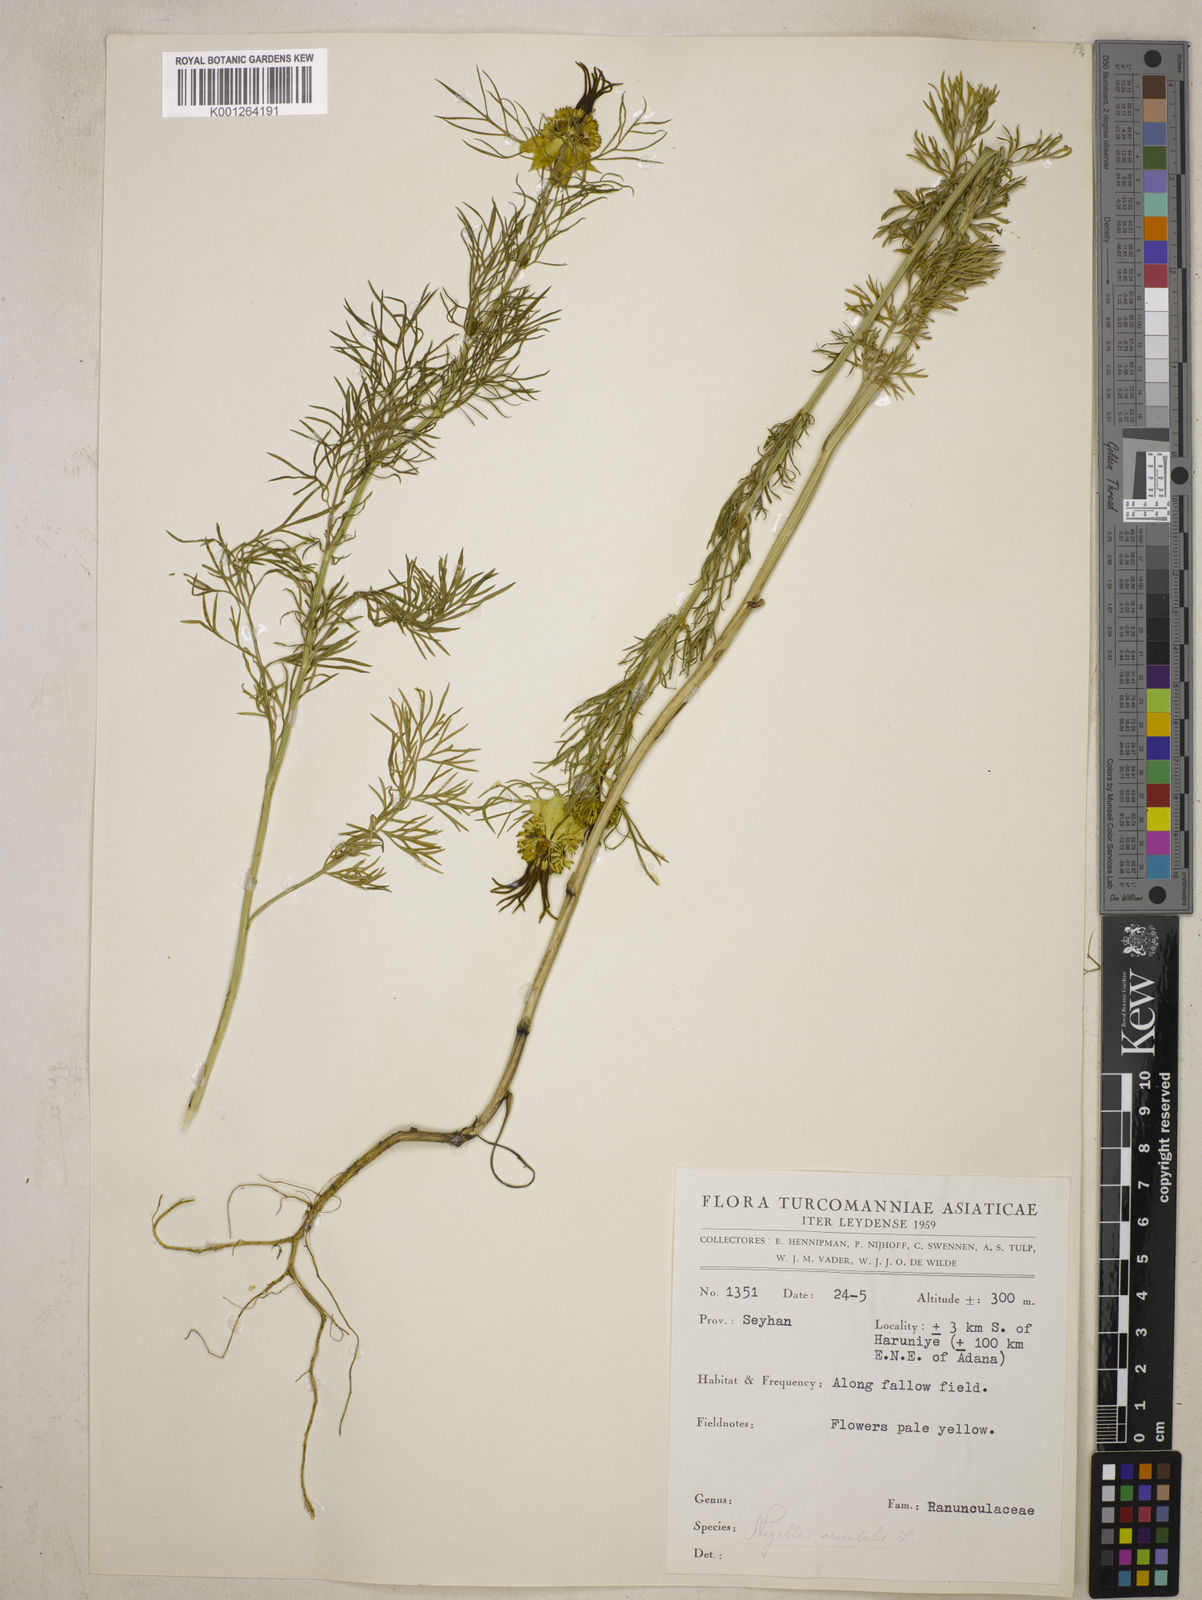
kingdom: Plantae
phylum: Tracheophyta
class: Magnoliopsida
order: Ranunculales
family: Ranunculaceae
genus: Nigella
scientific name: Nigella orientalis
